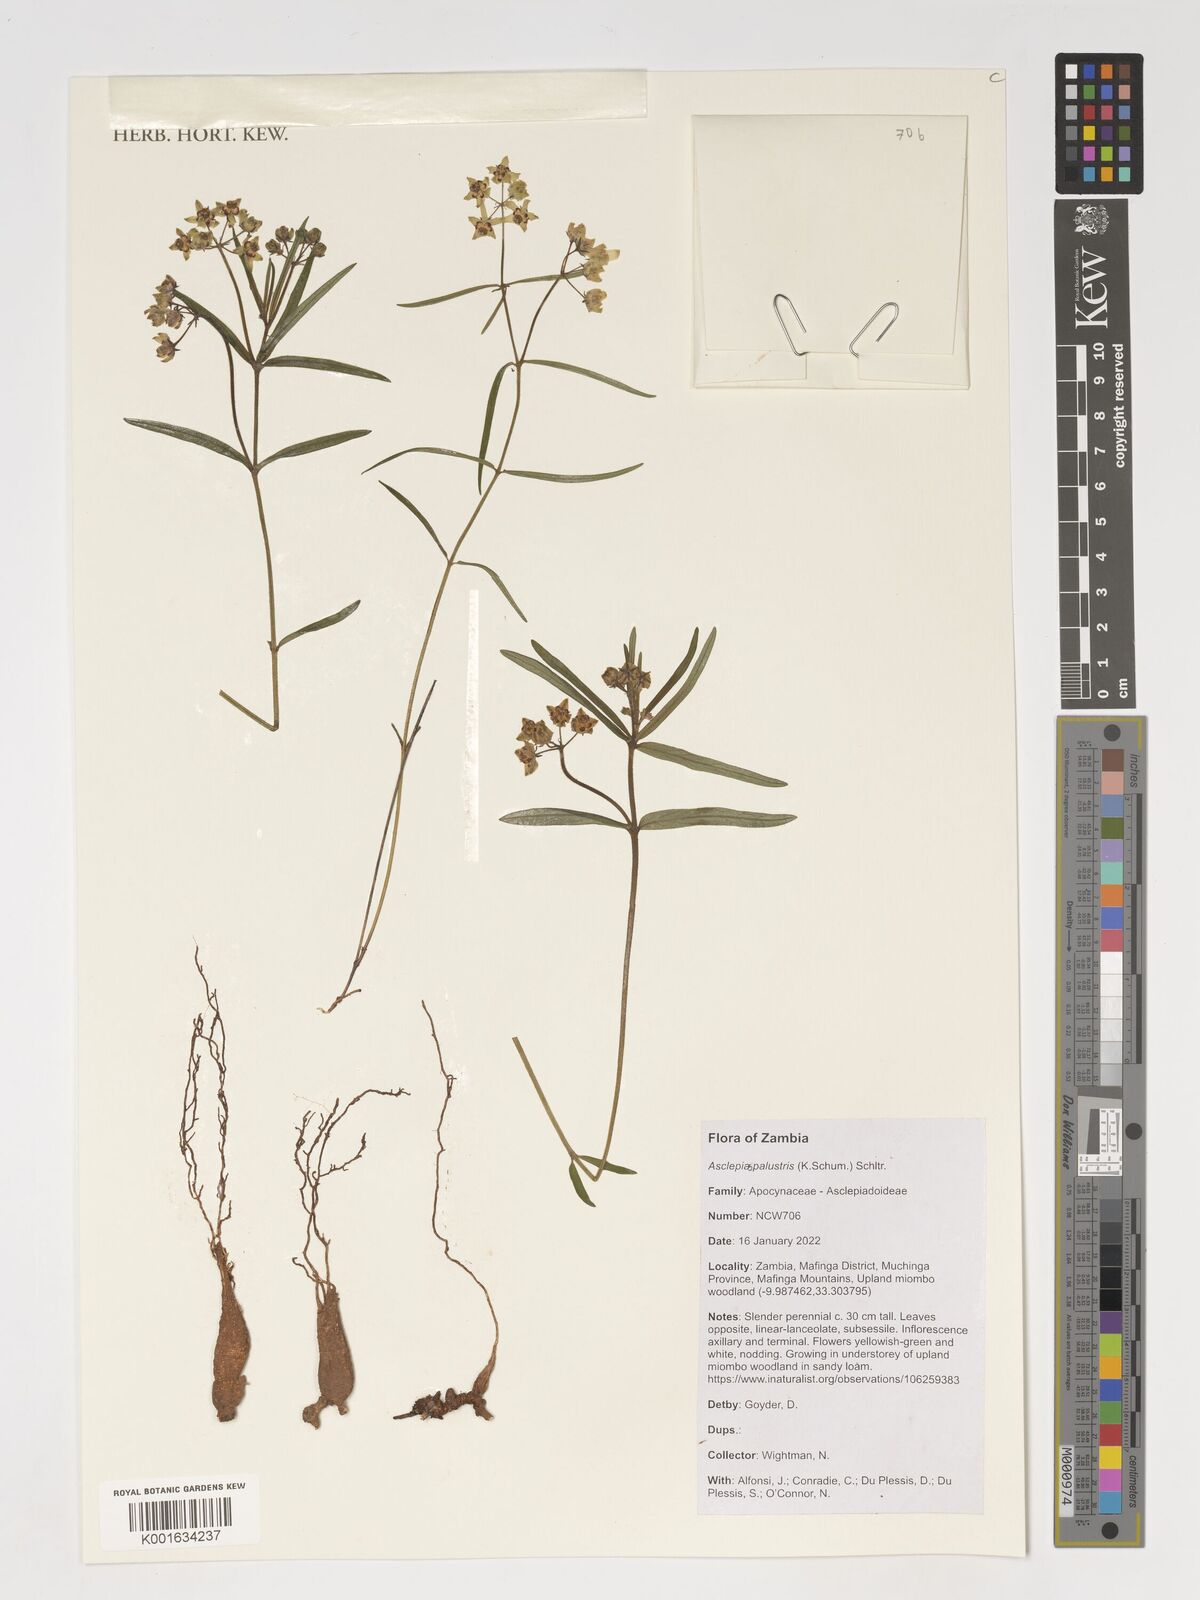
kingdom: Plantae
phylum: Tracheophyta
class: Magnoliopsida
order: Gentianales
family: Apocynaceae
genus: Asclepias
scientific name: Asclepias palustris
